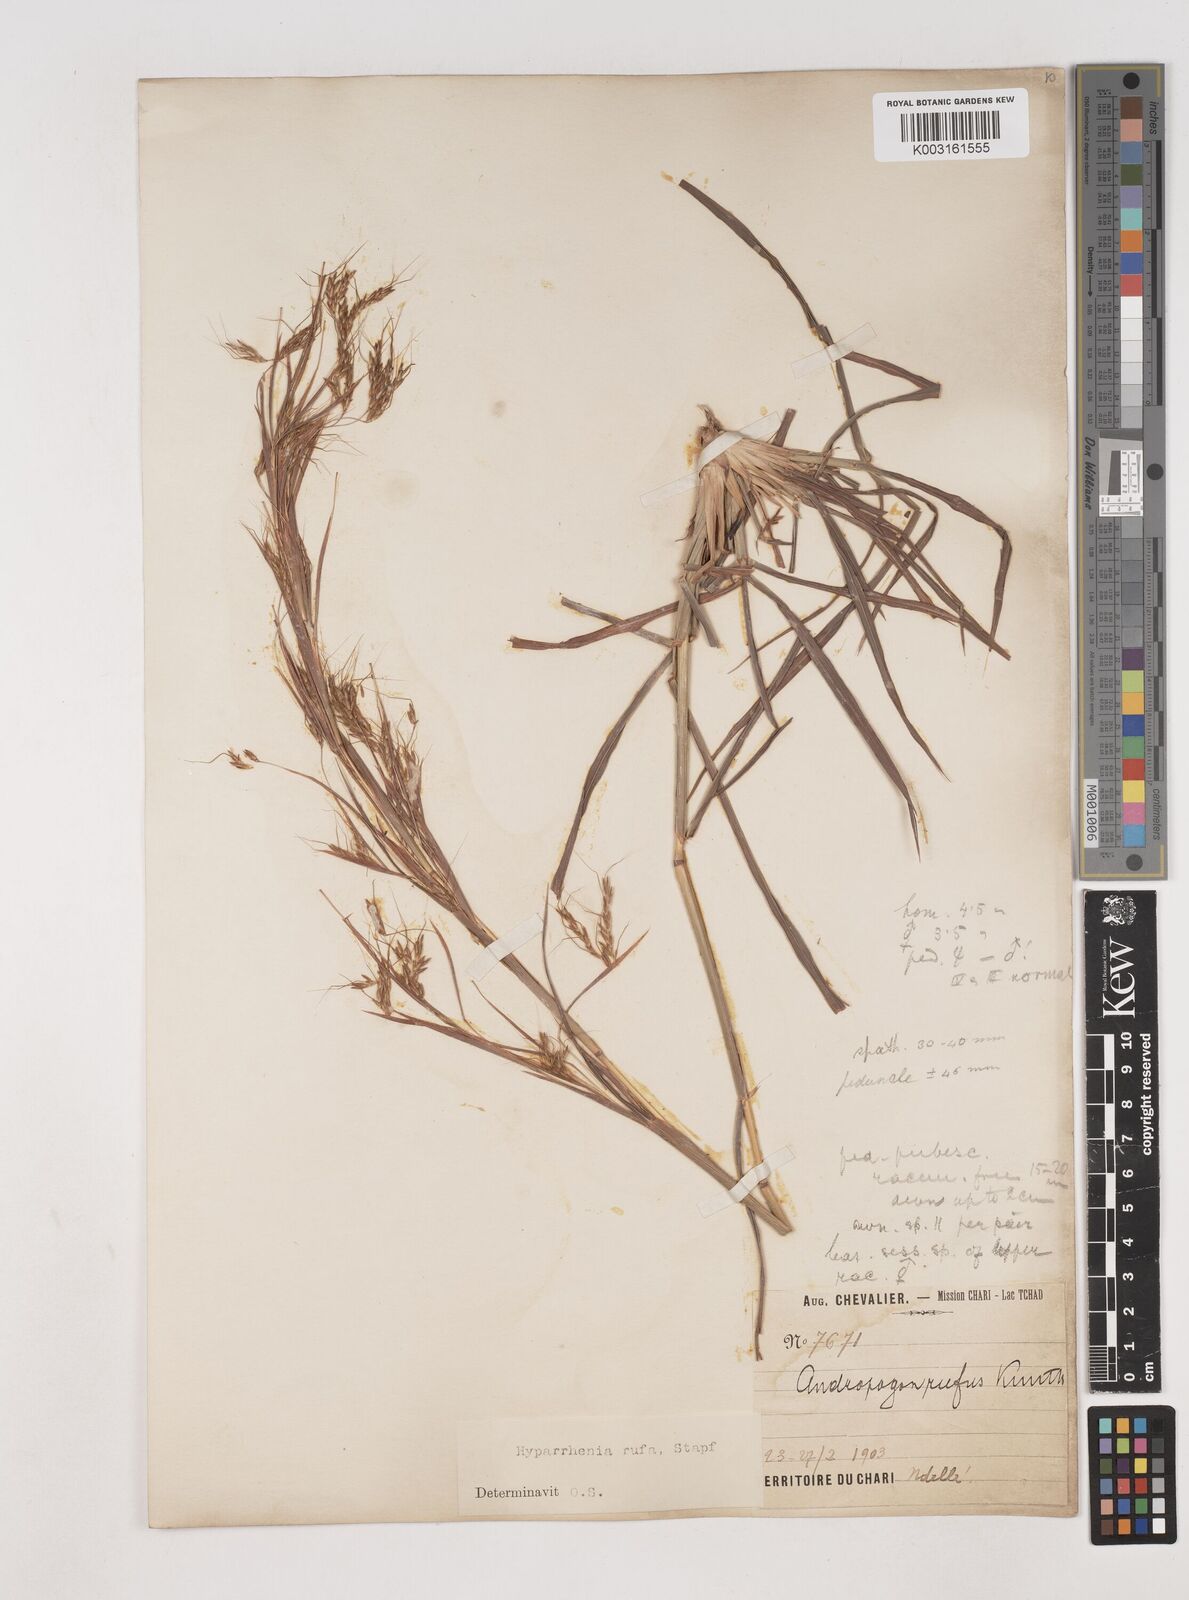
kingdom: Plantae
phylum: Tracheophyta
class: Liliopsida
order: Poales
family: Poaceae
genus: Hyparrhenia
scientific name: Hyparrhenia rufa
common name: Jaraguagrass
